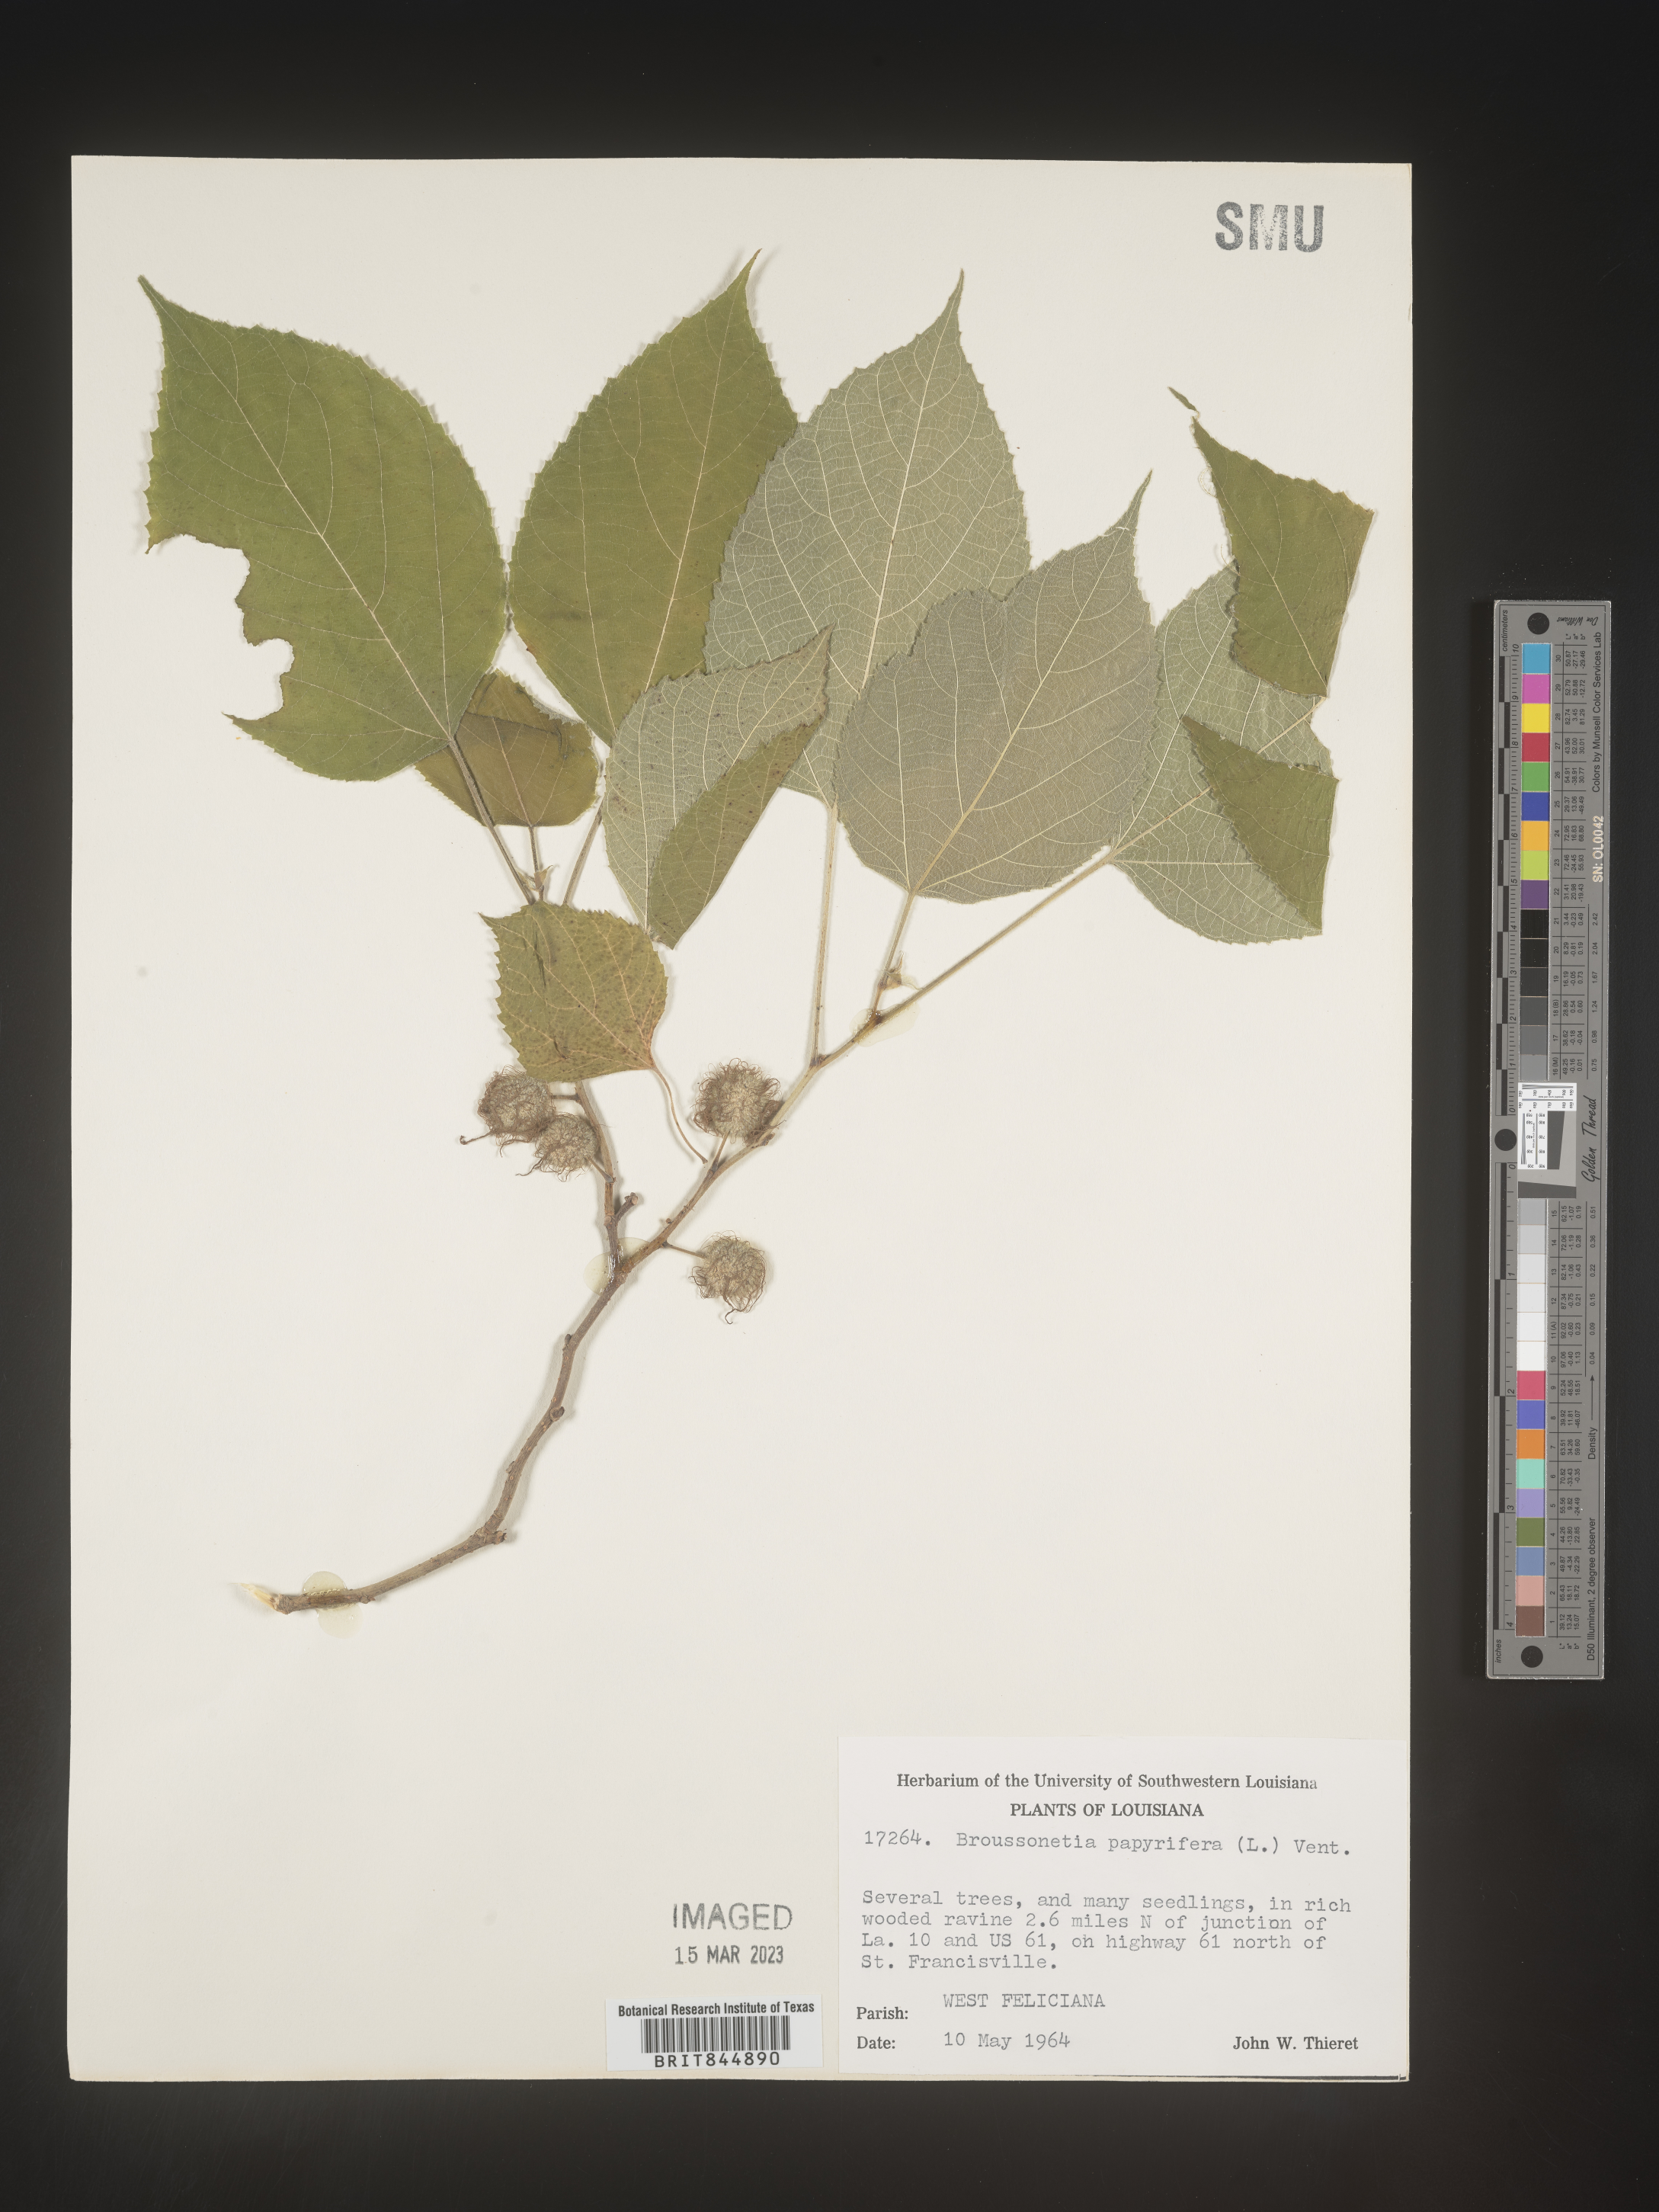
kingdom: Plantae
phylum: Tracheophyta
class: Magnoliopsida
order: Rosales
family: Moraceae
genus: Broussonetia
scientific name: Broussonetia
